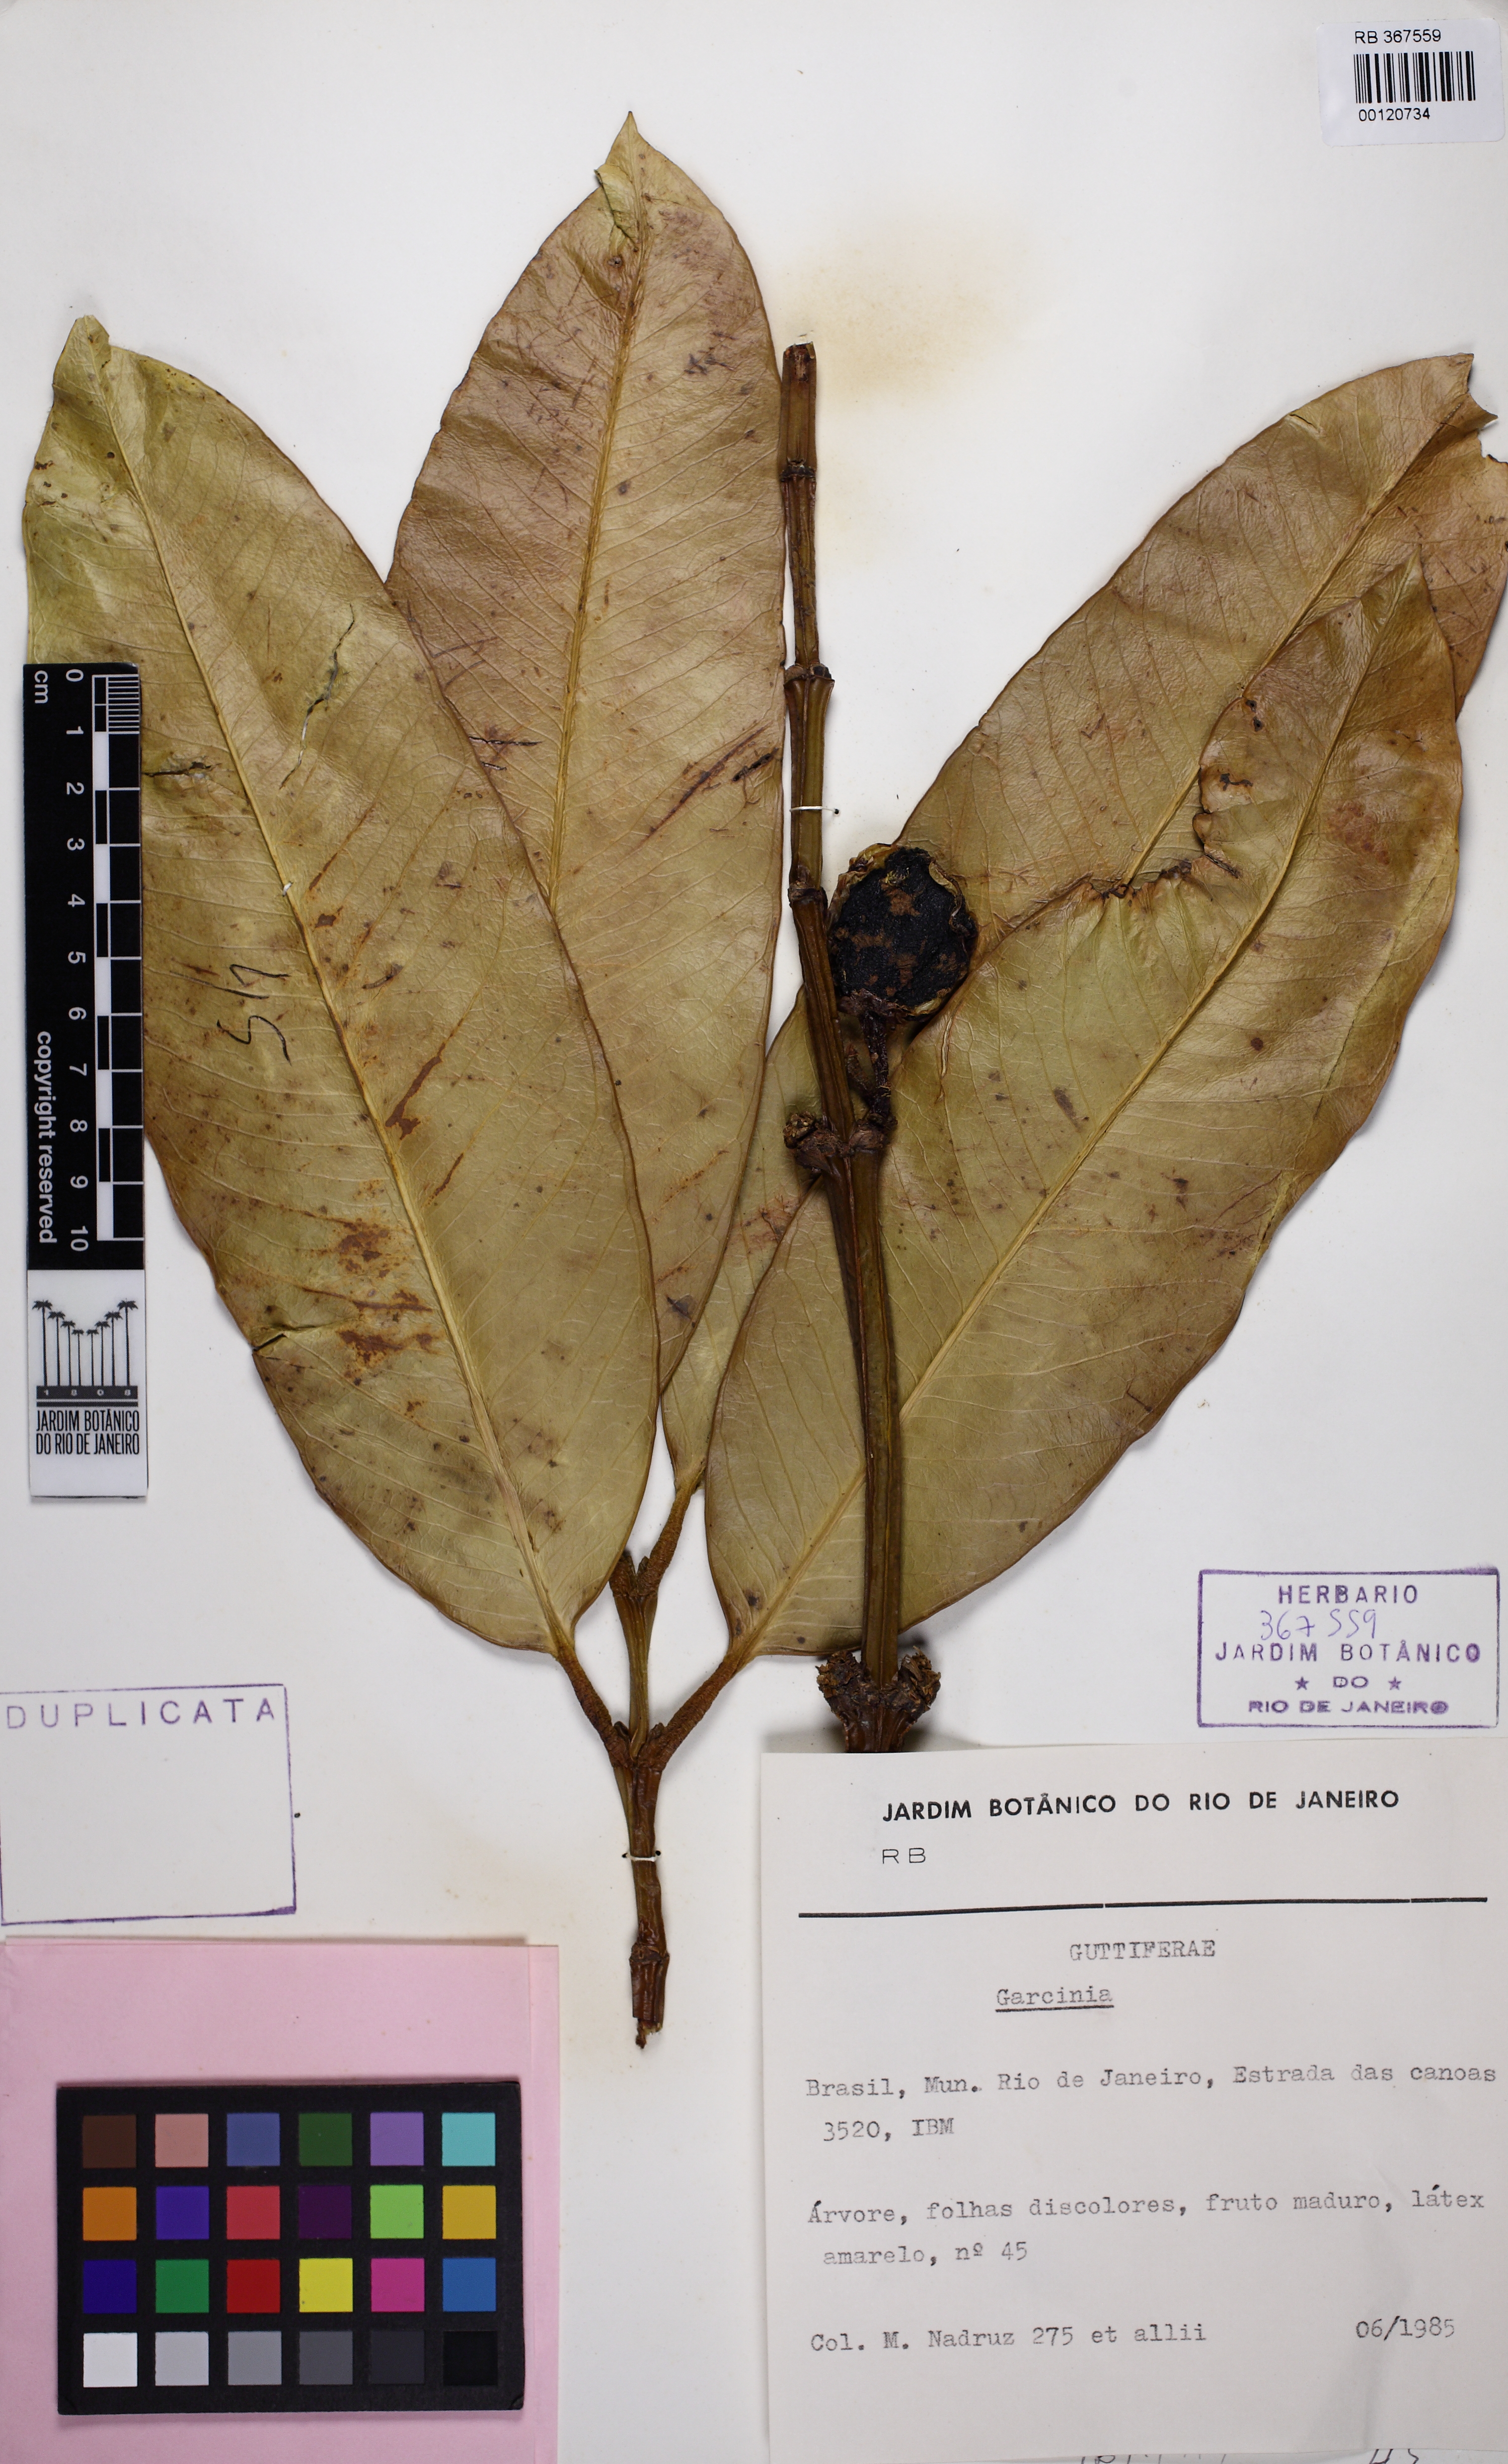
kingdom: Plantae
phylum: Tracheophyta
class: Magnoliopsida
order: Malpighiales
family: Clusiaceae
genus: Garcinia
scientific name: Garcinia benthamiana
